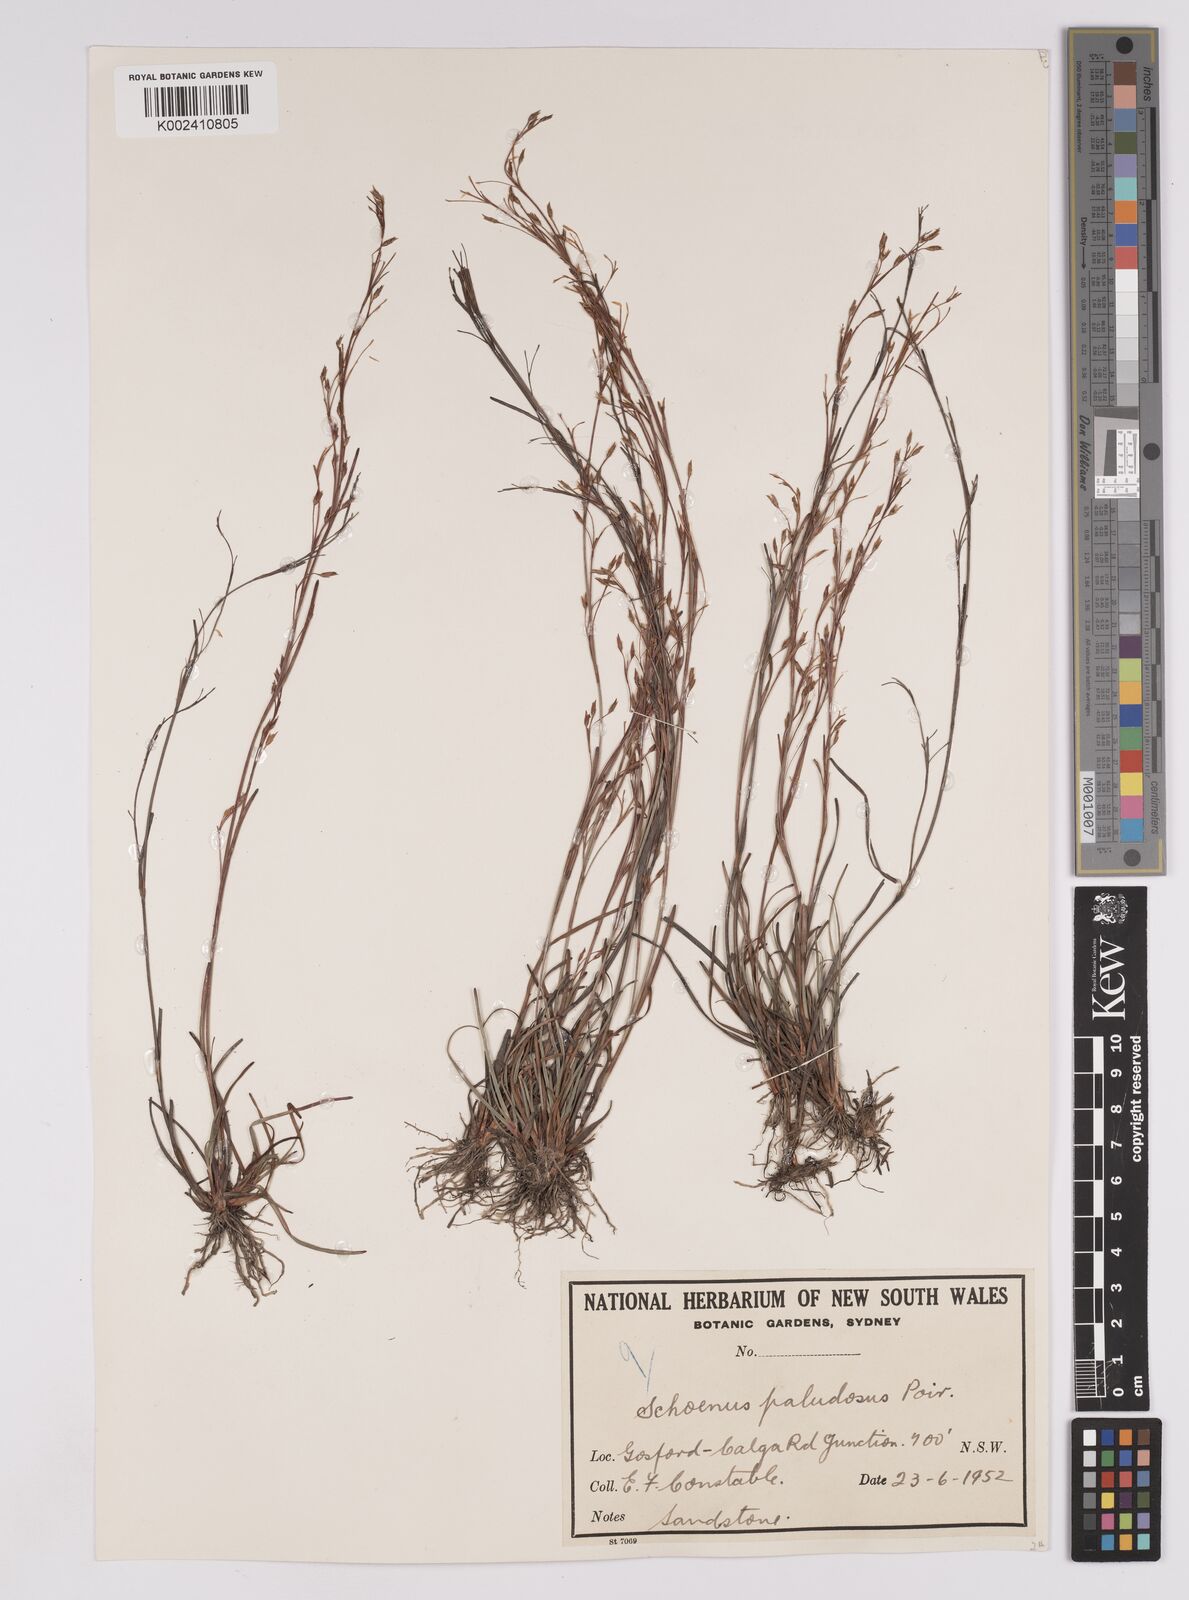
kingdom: Plantae
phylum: Tracheophyta
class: Liliopsida
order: Poales
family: Cyperaceae
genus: Anthelepis
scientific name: Anthelepis paludosa
